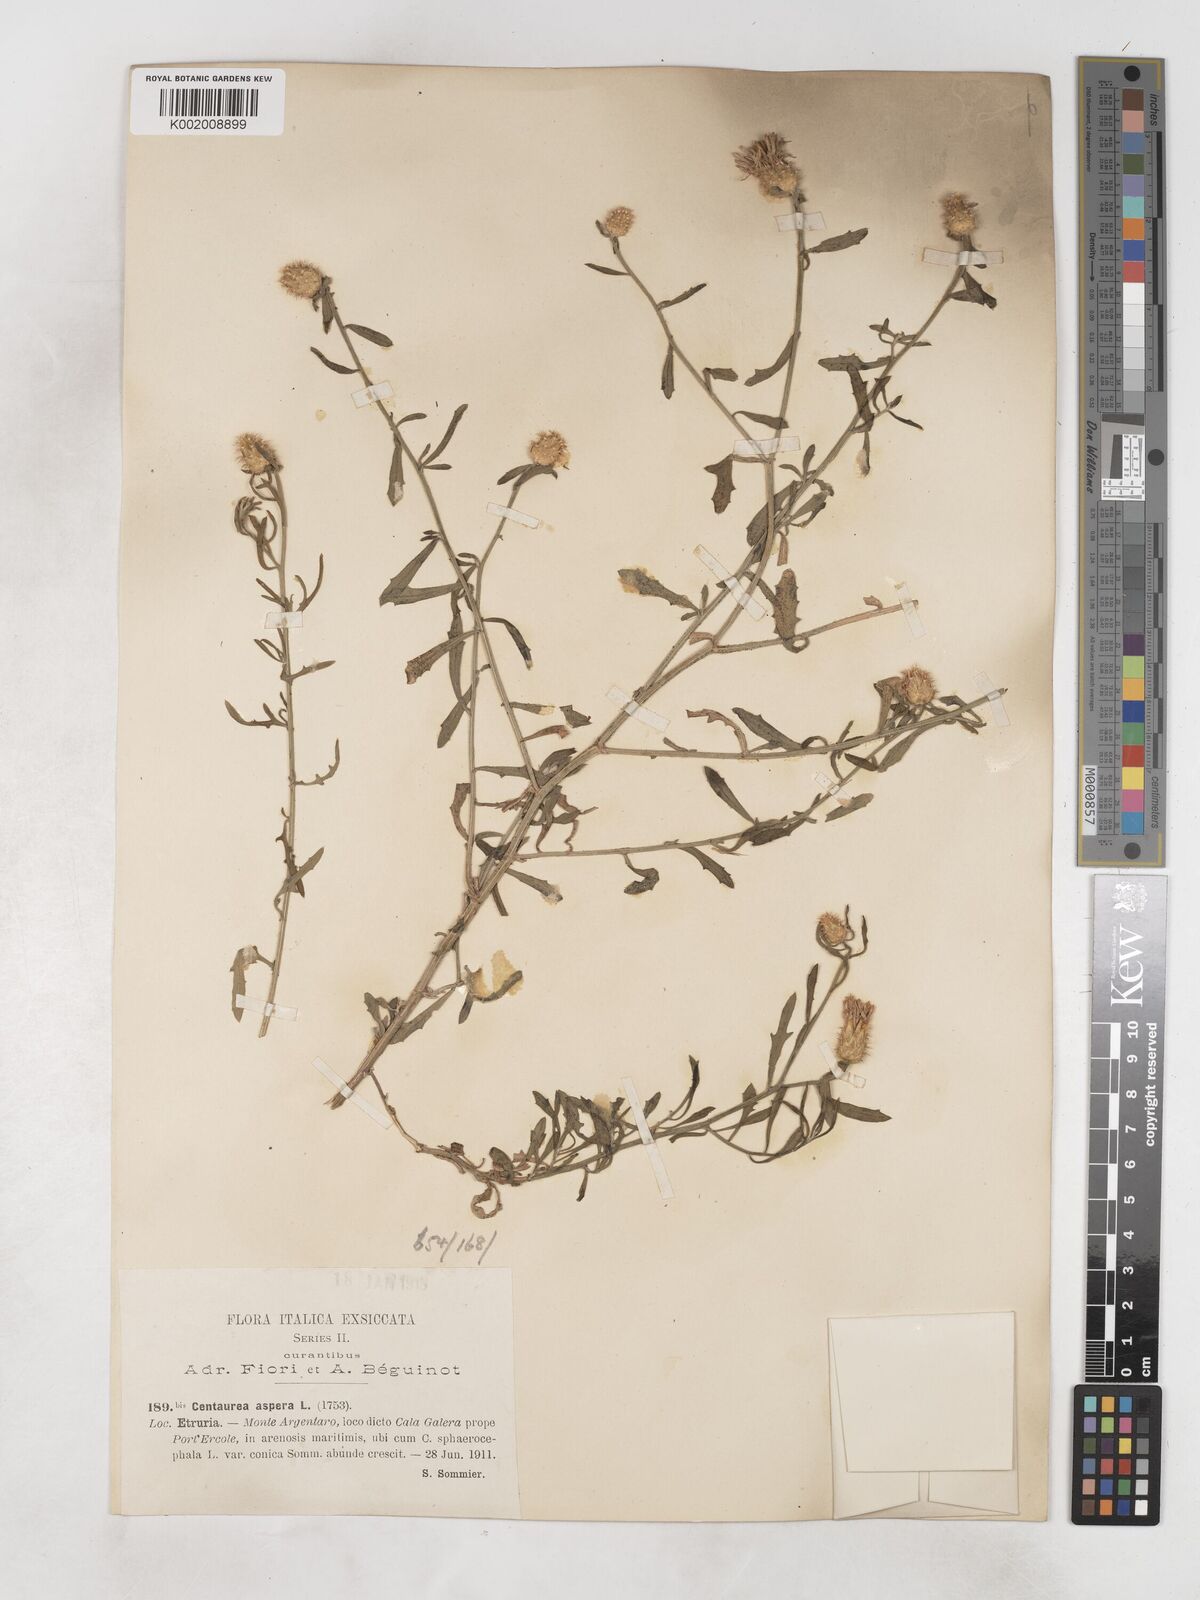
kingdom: Plantae
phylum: Tracheophyta
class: Magnoliopsida
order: Asterales
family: Asteraceae
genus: Centaurea
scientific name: Centaurea aspera
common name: Rough star-thistle
